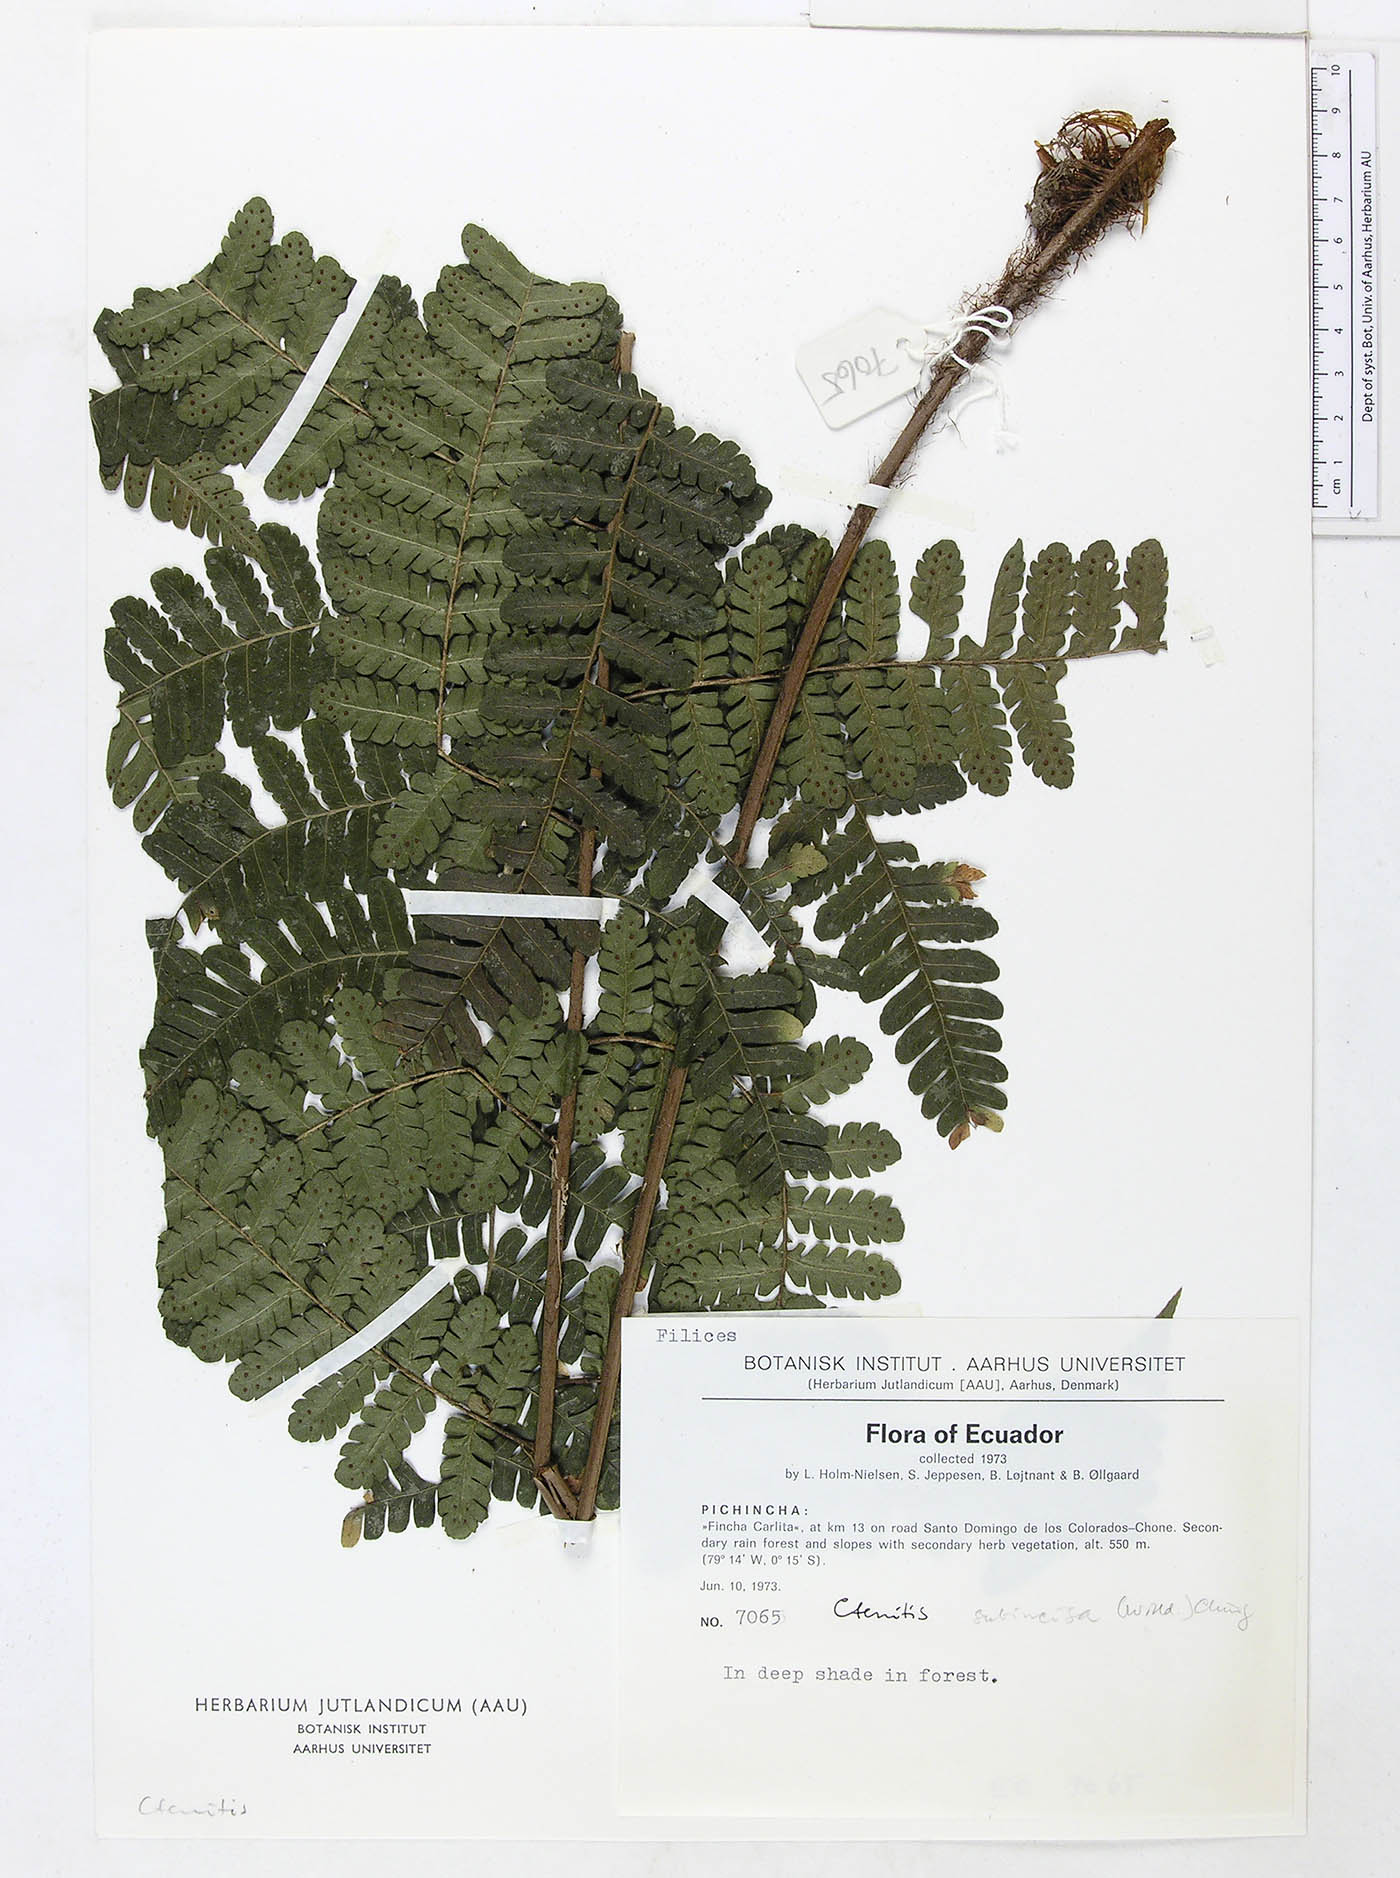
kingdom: Plantae
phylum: Tracheophyta
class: Polypodiopsida
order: Polypodiales
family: Dryopteridaceae
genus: Megalastrum
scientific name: Megalastrum reductum
